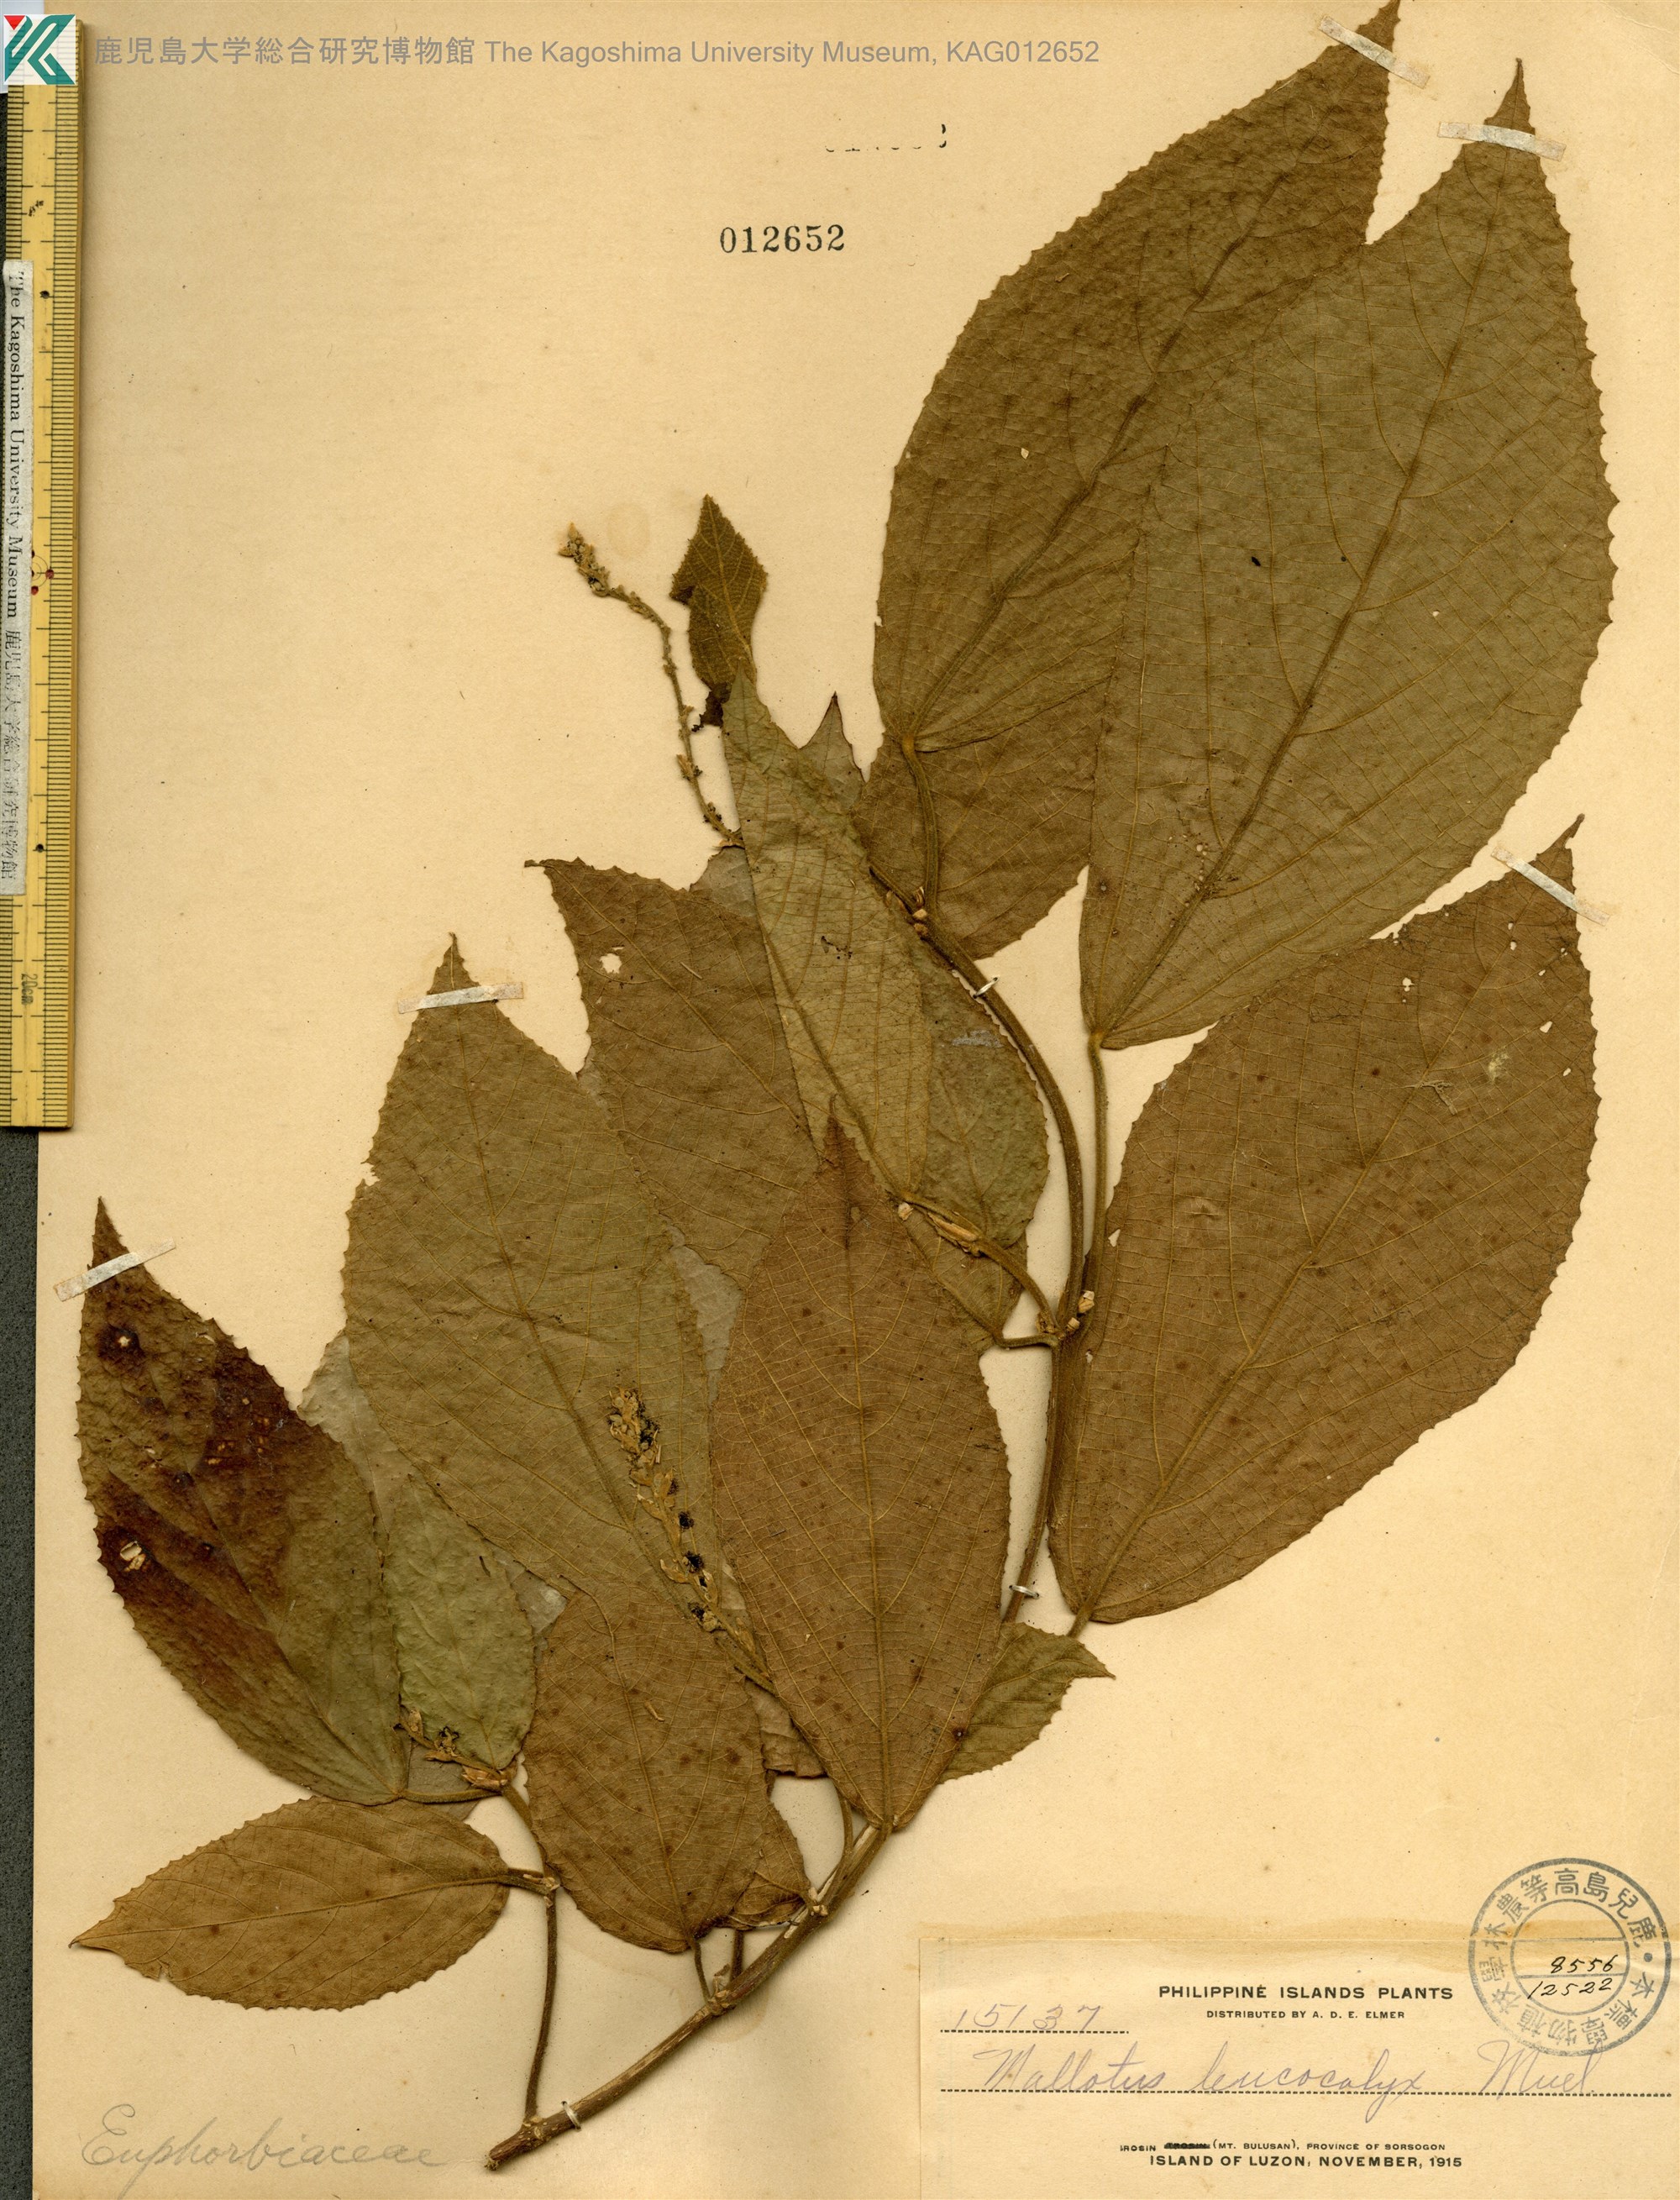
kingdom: Plantae
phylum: Tracheophyta
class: Magnoliopsida
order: Malpighiales
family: Euphorbiaceae
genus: Mallotus
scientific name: Mallotus leucocalyx
